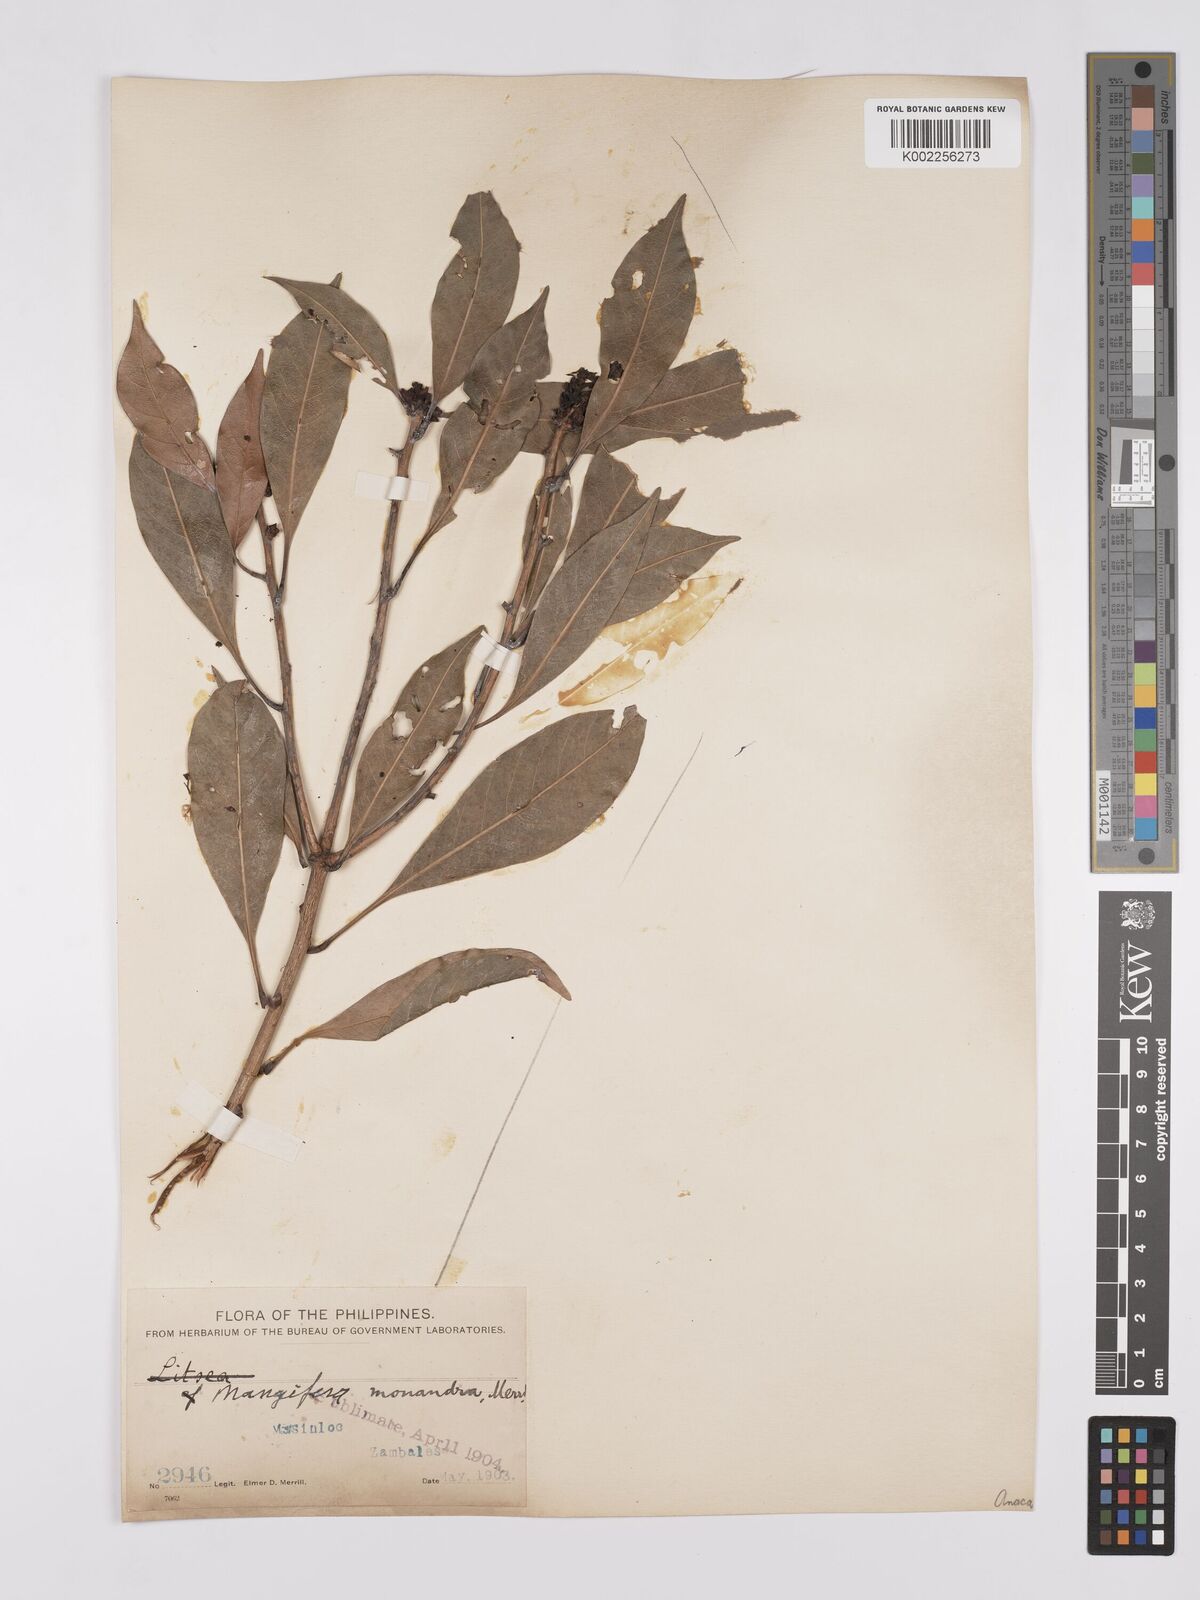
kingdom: Plantae
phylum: Tracheophyta
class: Magnoliopsida
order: Sapindales
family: Anacardiaceae
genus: Mangifera
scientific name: Mangifera monandra
